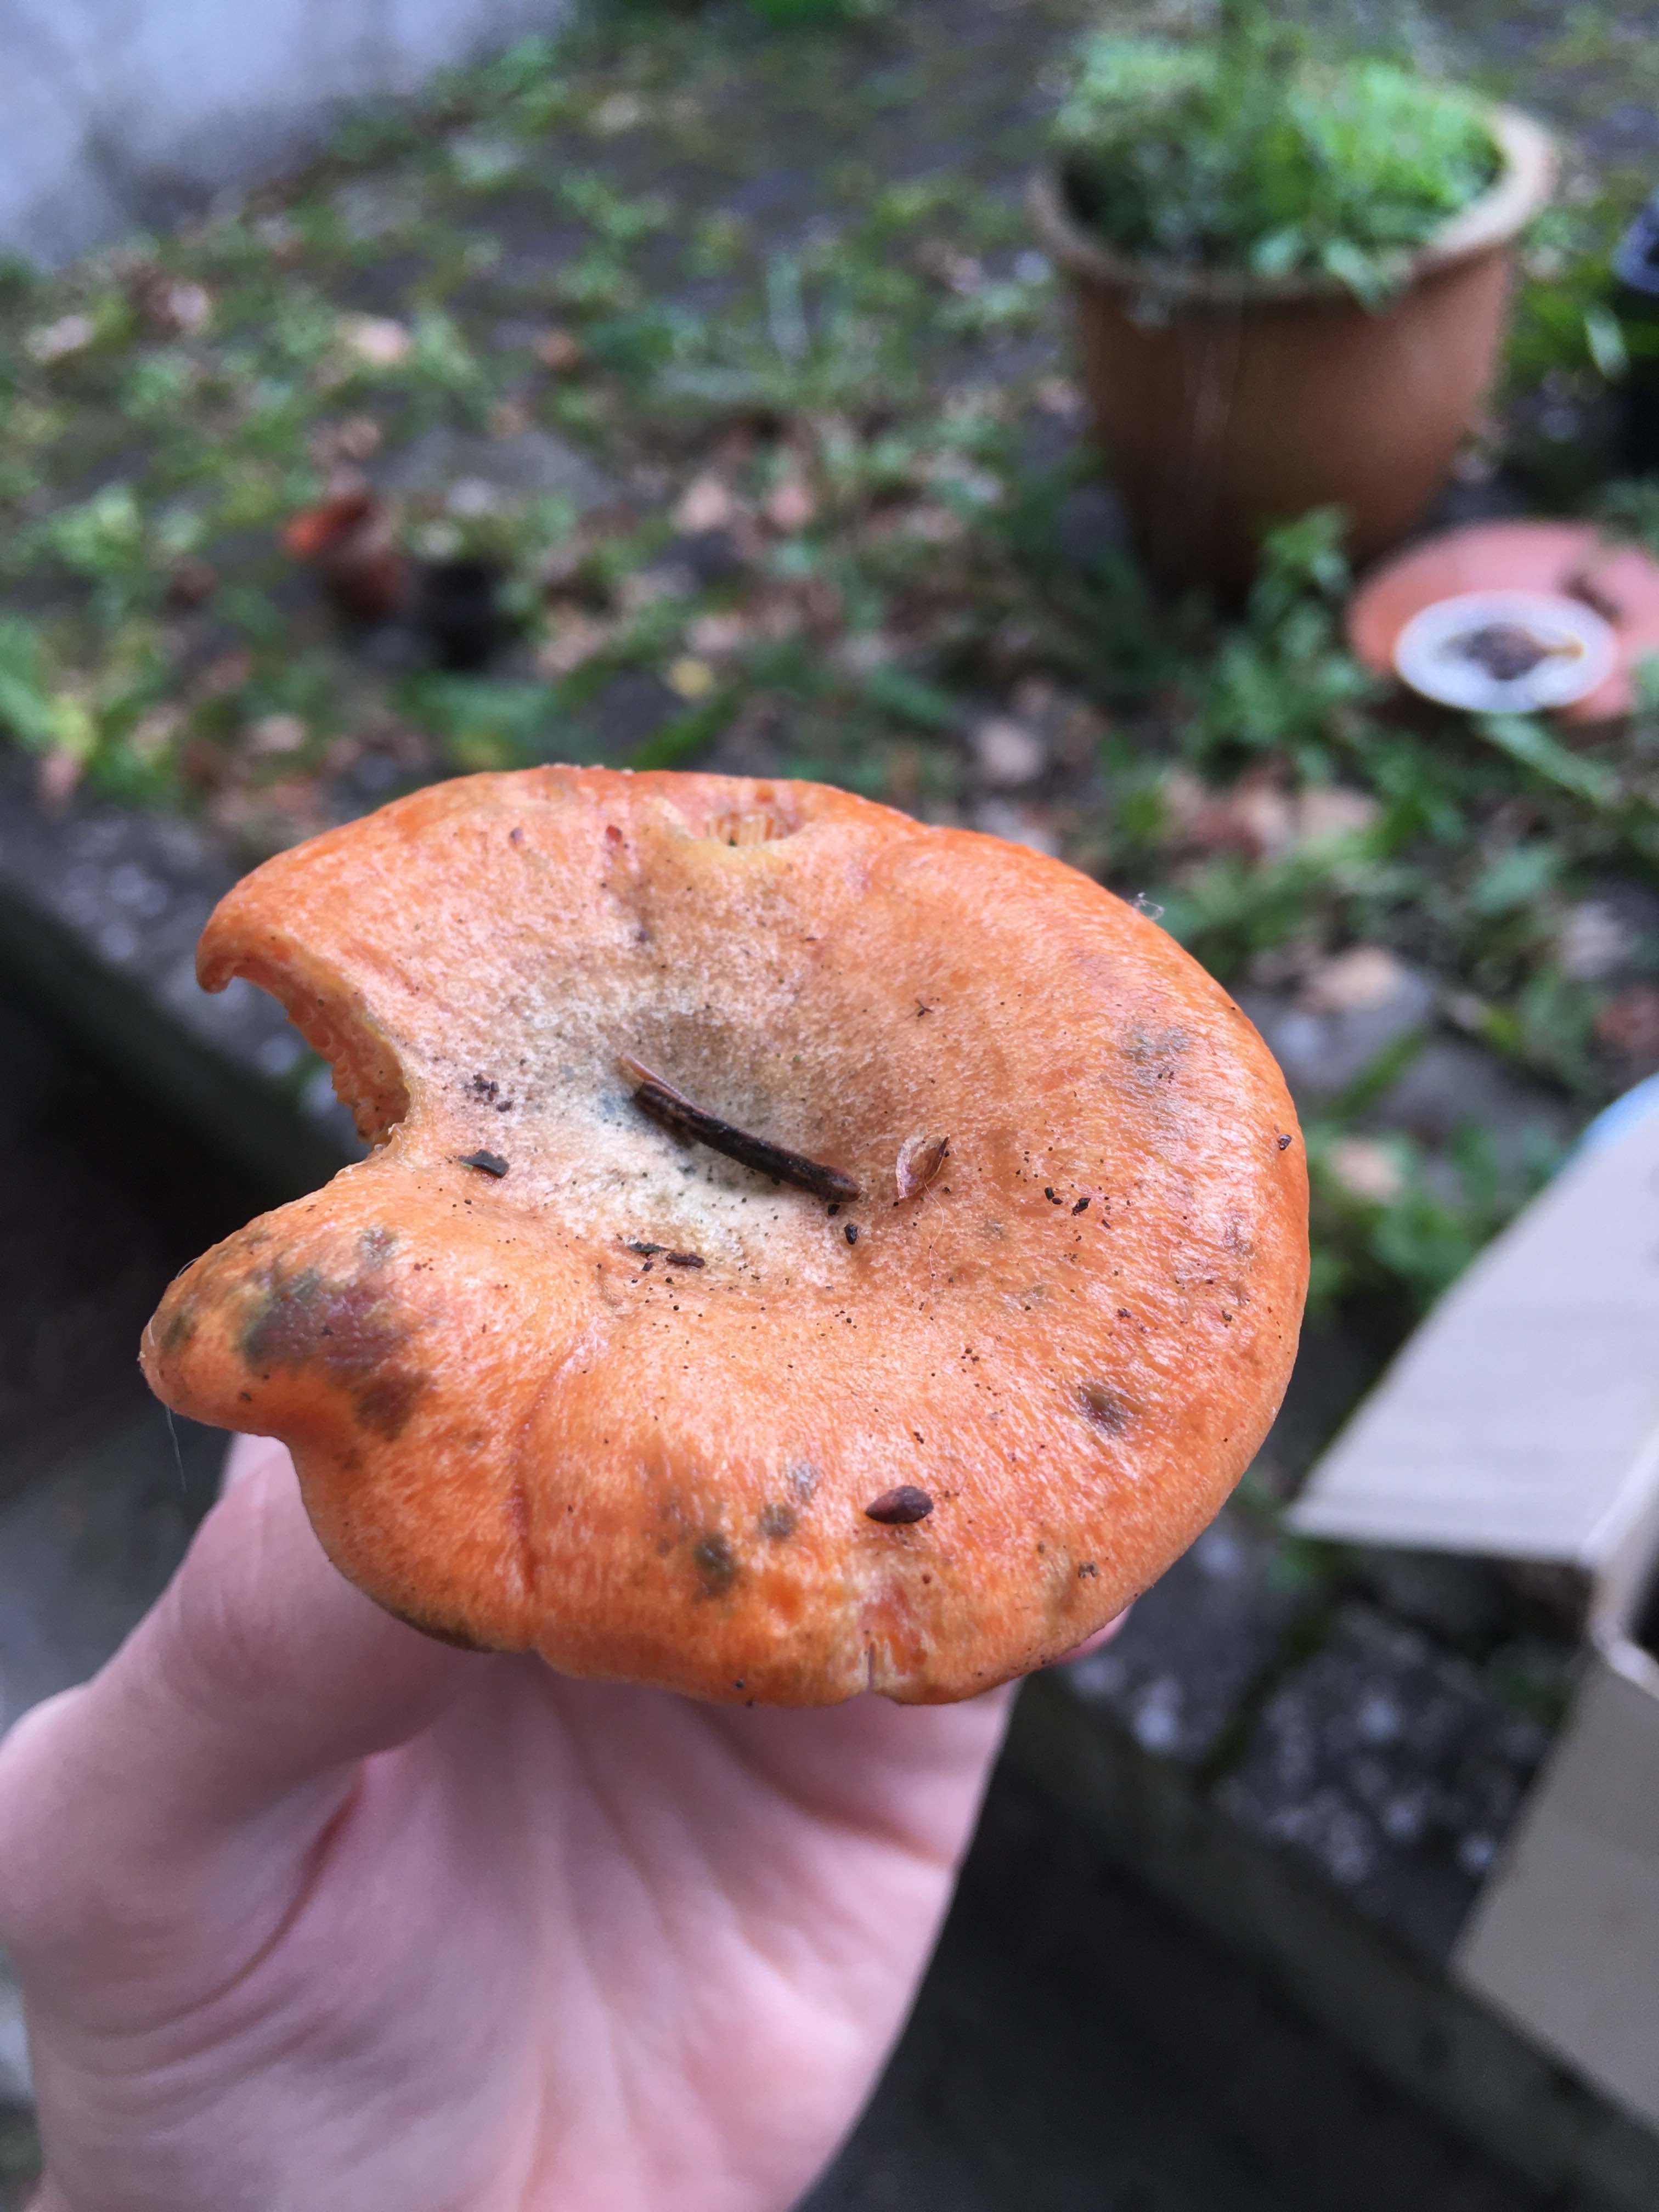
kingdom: Fungi
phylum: Basidiomycota
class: Agaricomycetes
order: Russulales
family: Russulaceae
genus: Lactarius
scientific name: Lactarius deterrimus
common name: gran-mælkehat
